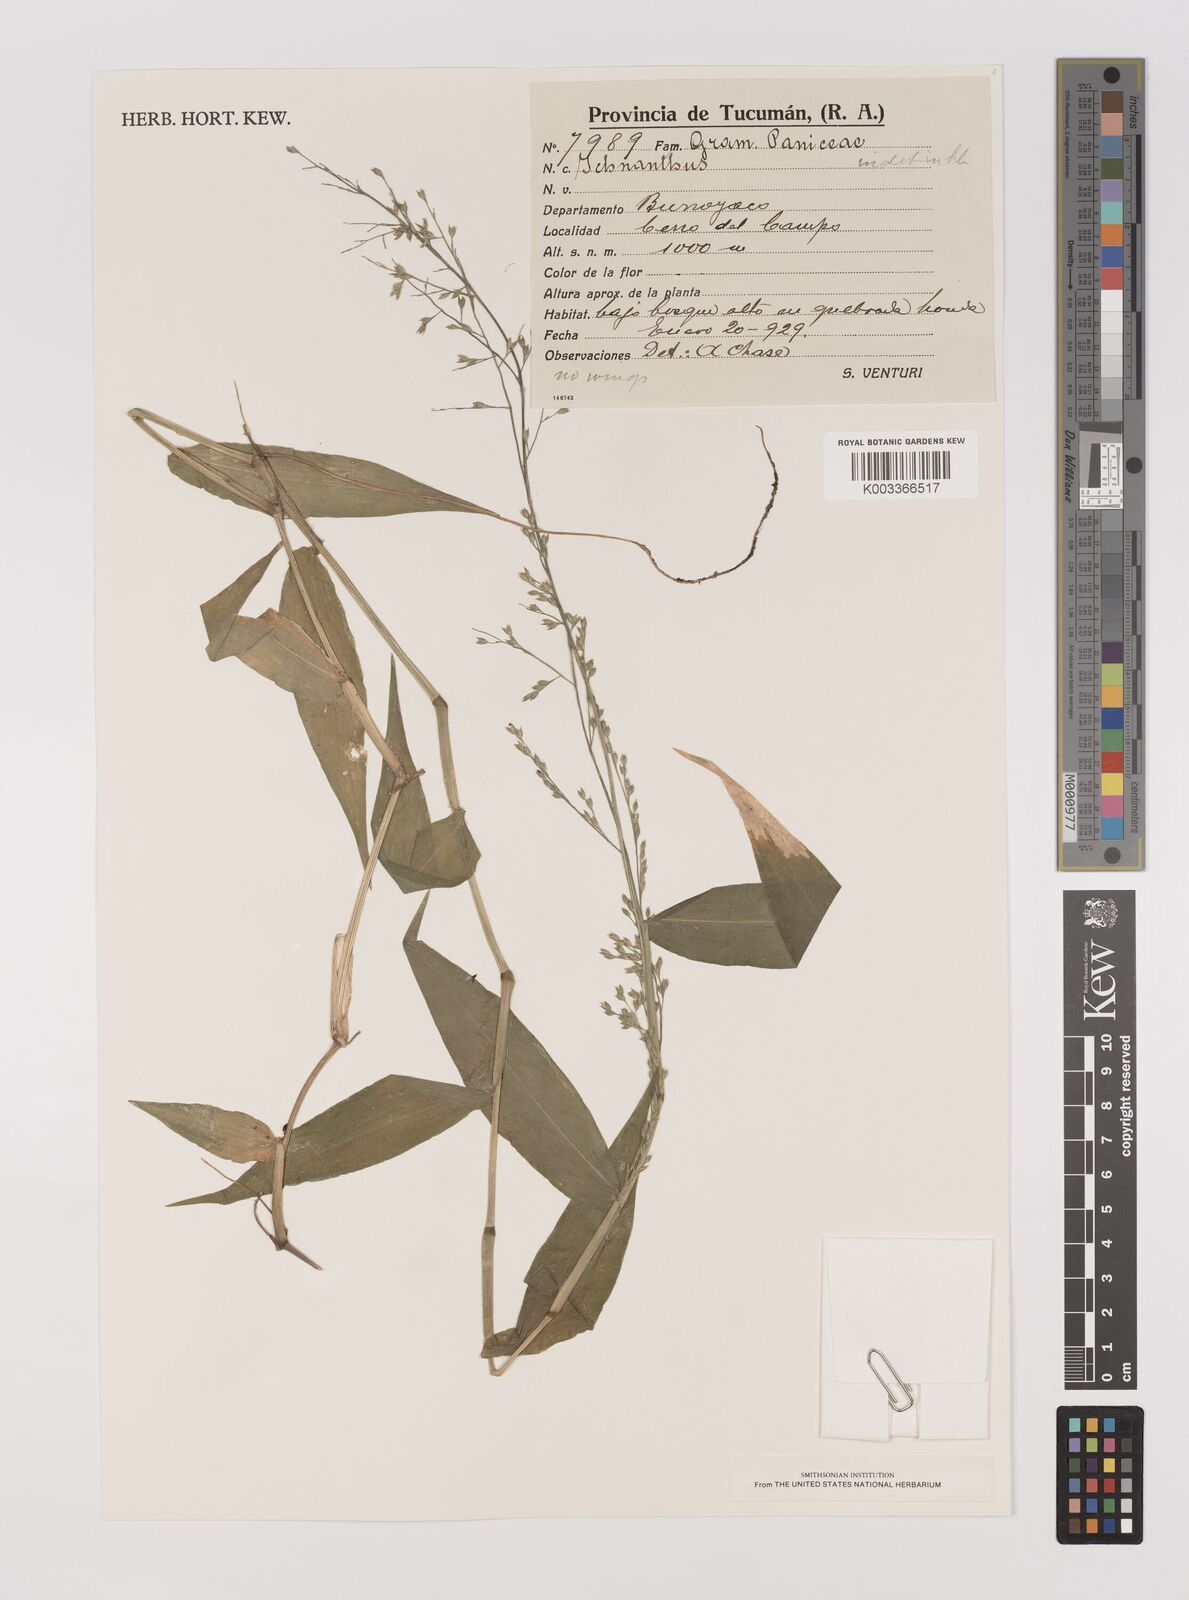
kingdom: Plantae
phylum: Tracheophyta
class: Liliopsida
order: Poales
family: Poaceae
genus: Ichnanthus
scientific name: Ichnanthus ruprechtii
